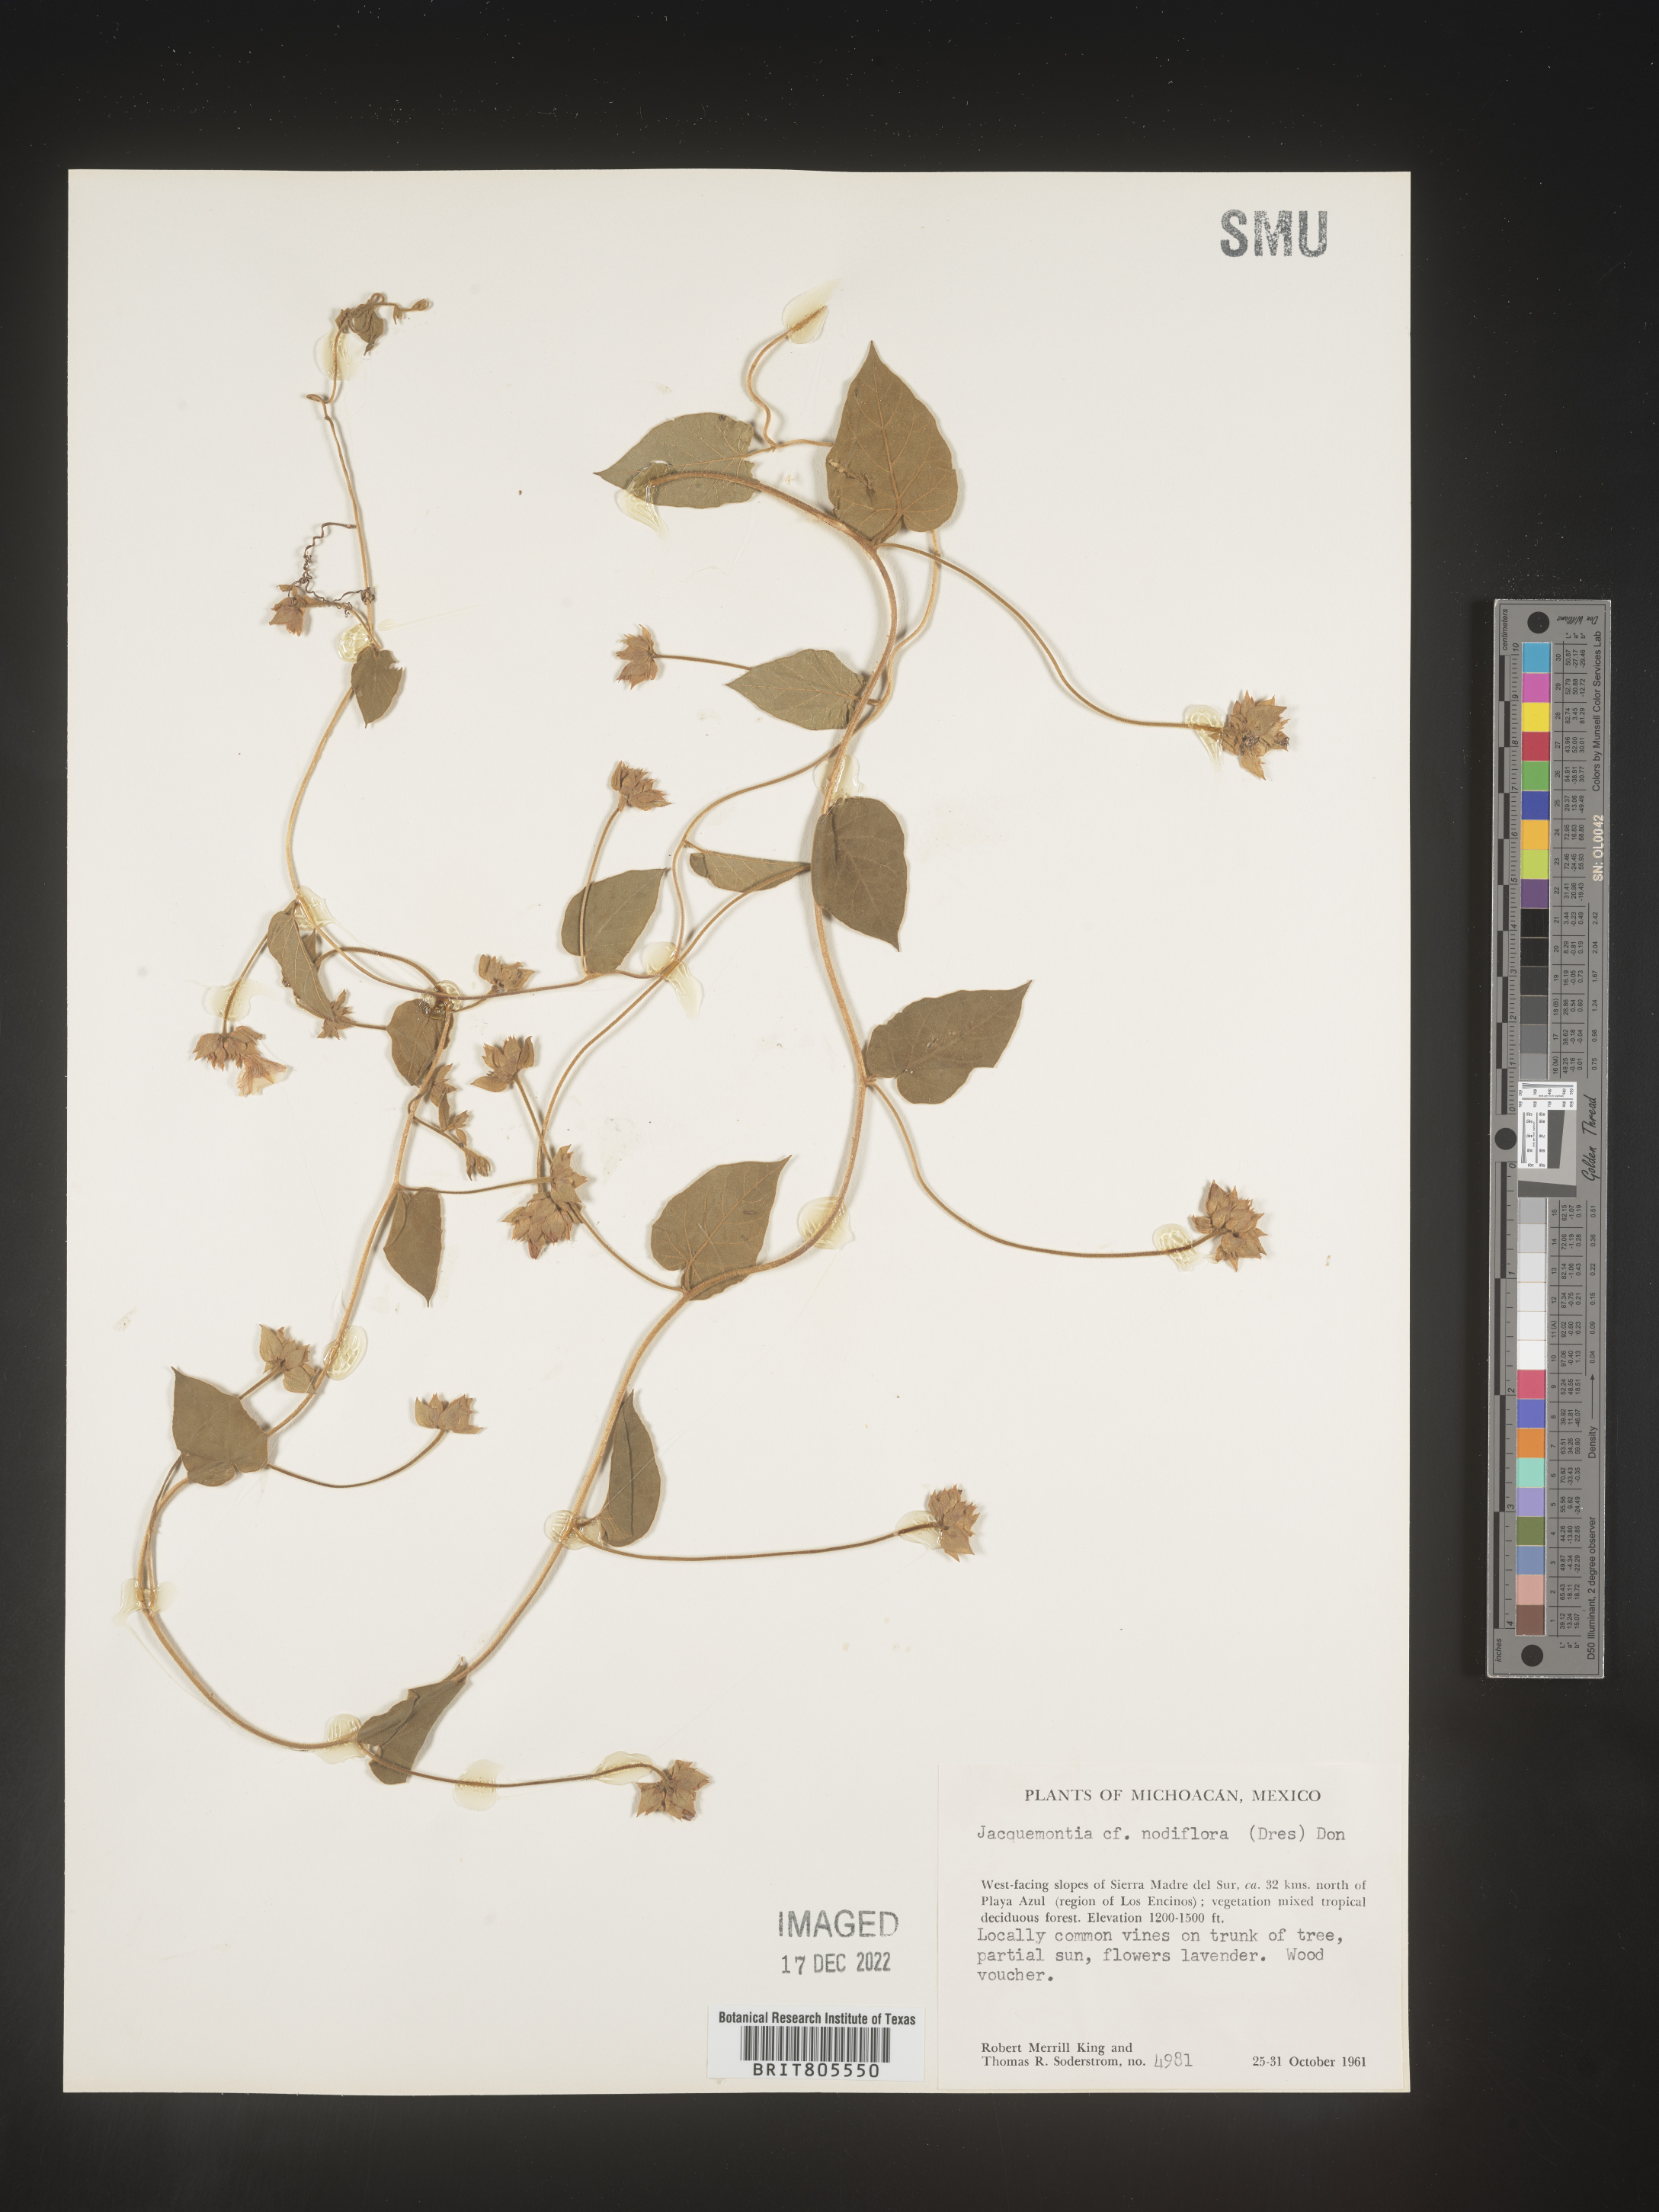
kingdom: Plantae
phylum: Tracheophyta
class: Magnoliopsida
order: Solanales
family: Convolvulaceae
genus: Jacquemontia
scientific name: Jacquemontia
